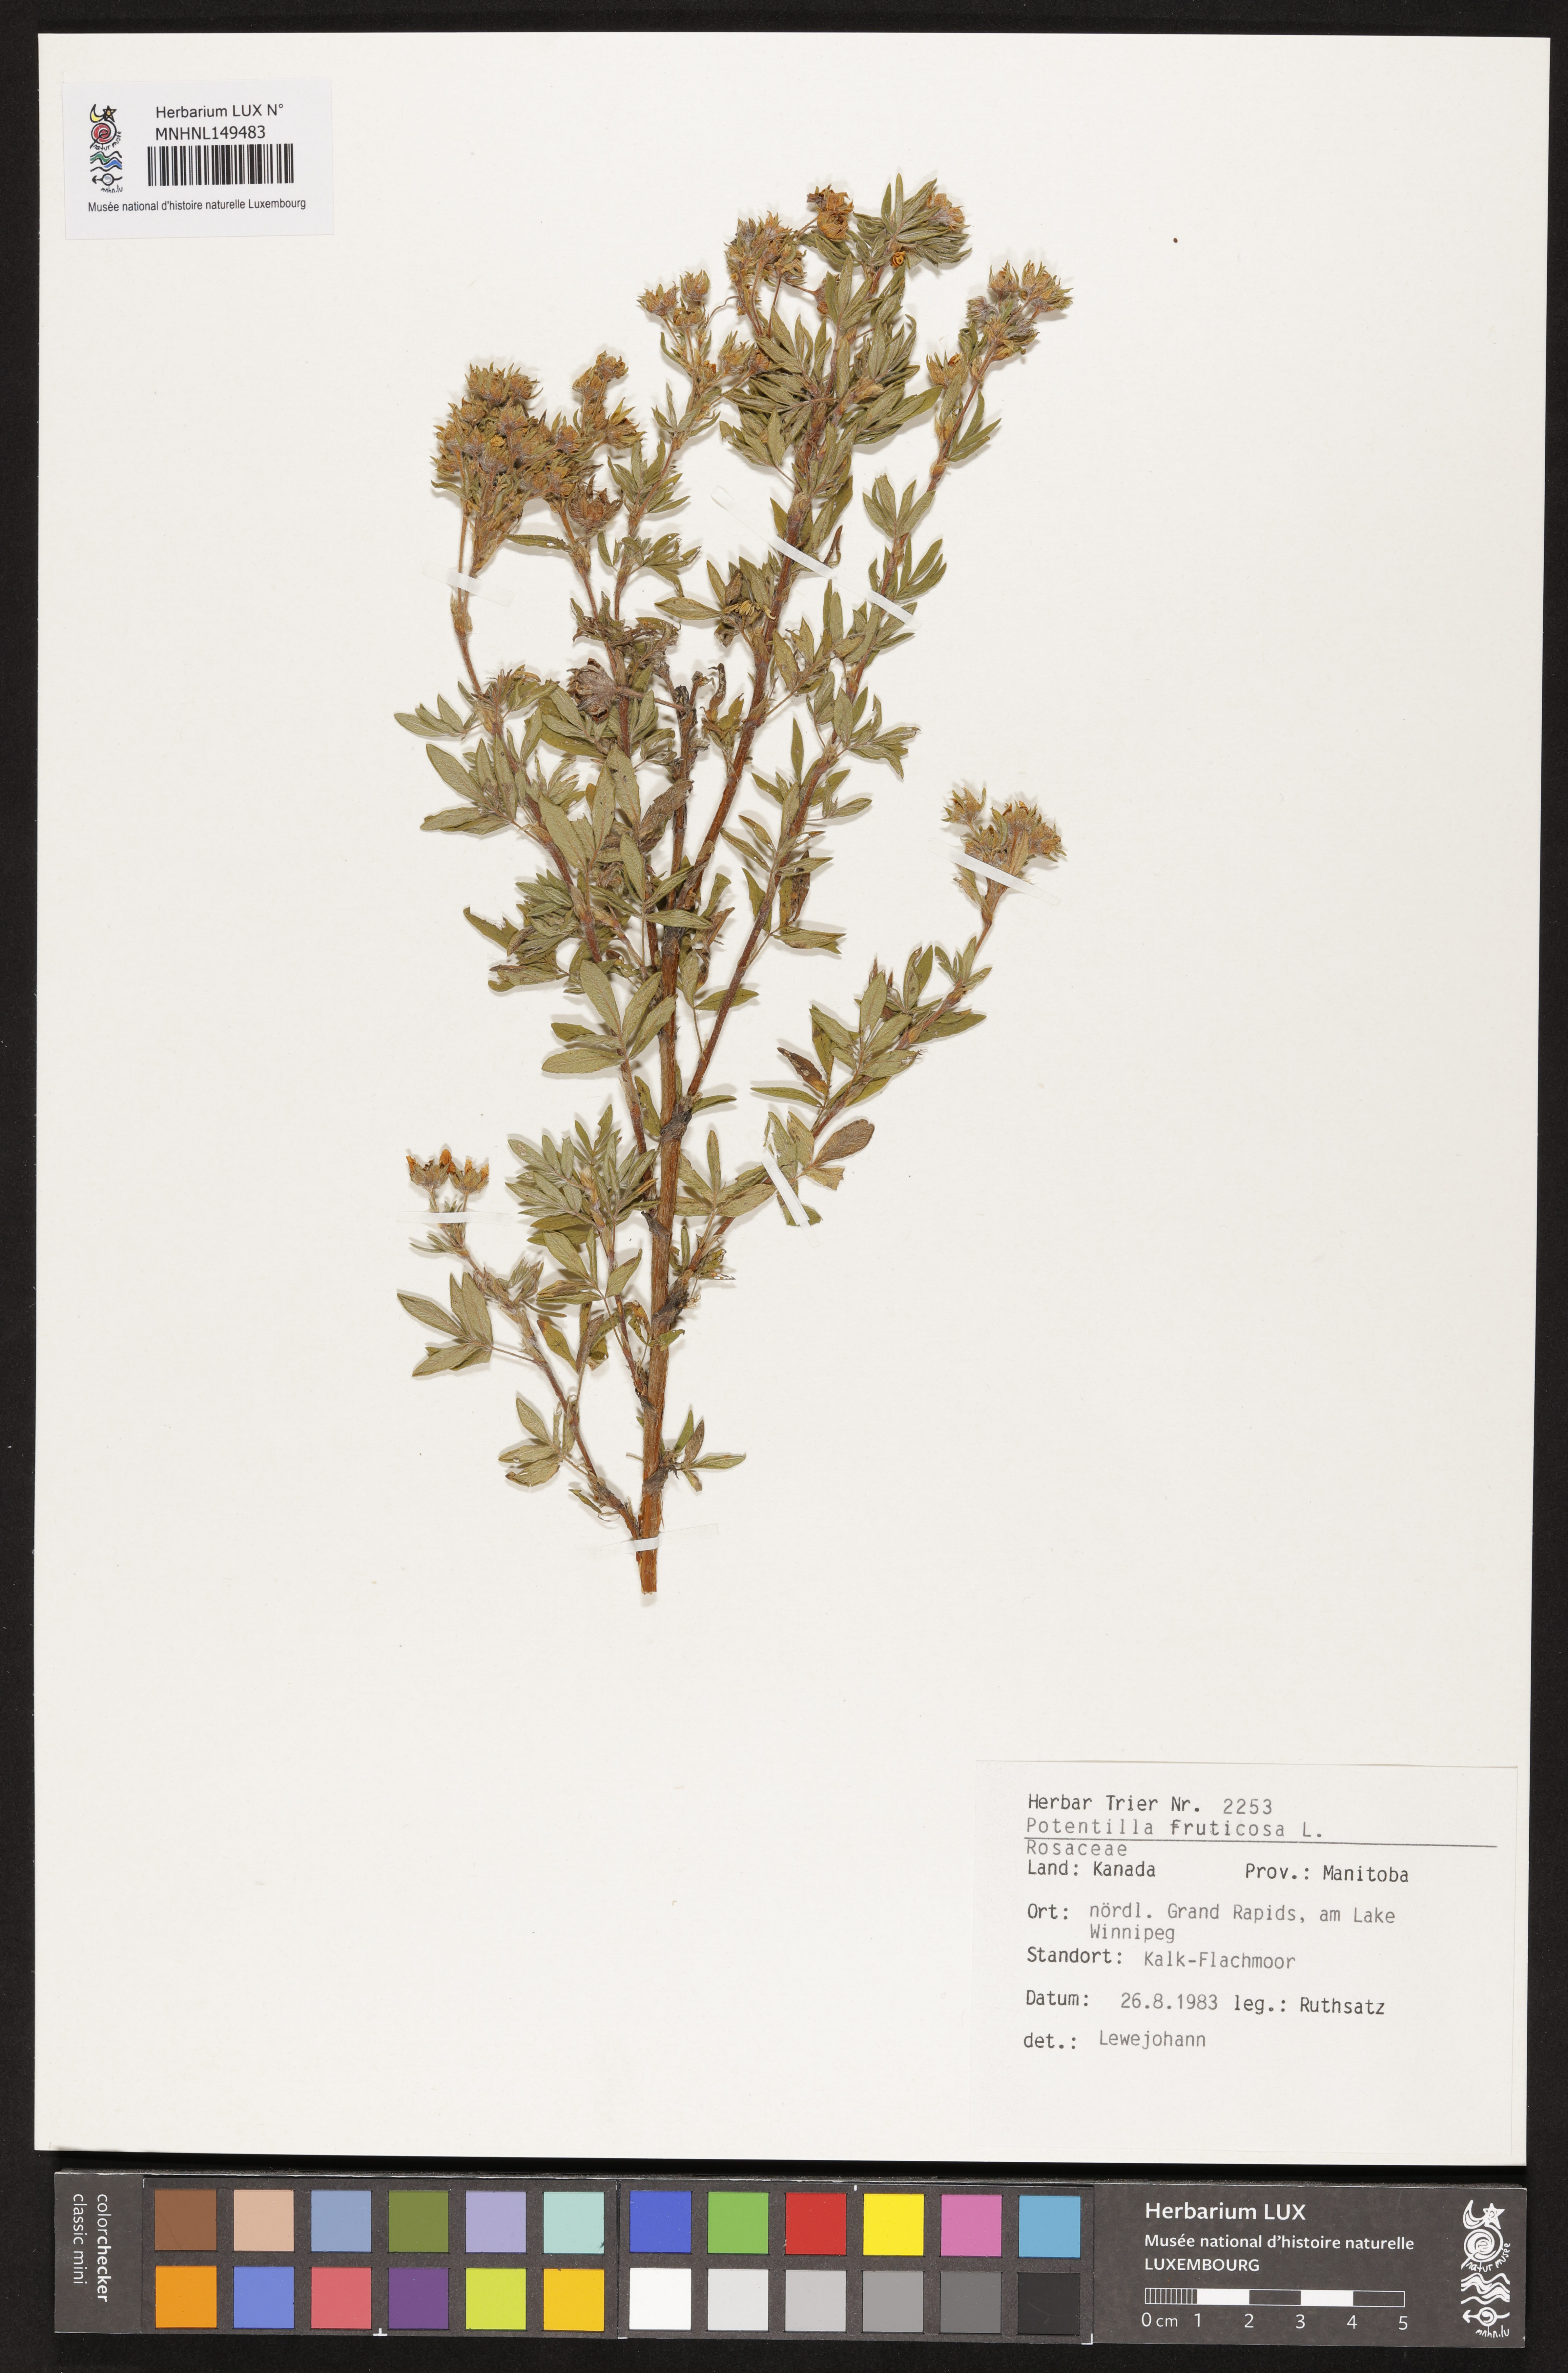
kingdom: Plantae
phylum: Tracheophyta
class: Magnoliopsida
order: Rosales
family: Rosaceae
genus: Dasiphora
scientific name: Dasiphora fruticosa
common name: Shrubby cinquefoil
